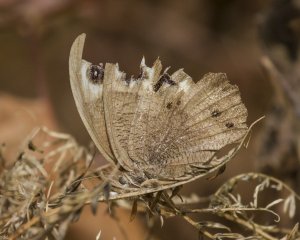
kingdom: Animalia
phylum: Arthropoda
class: Insecta
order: Lepidoptera
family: Nymphalidae
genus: Cercyonis
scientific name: Cercyonis pegala
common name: Common Wood-Nymph
